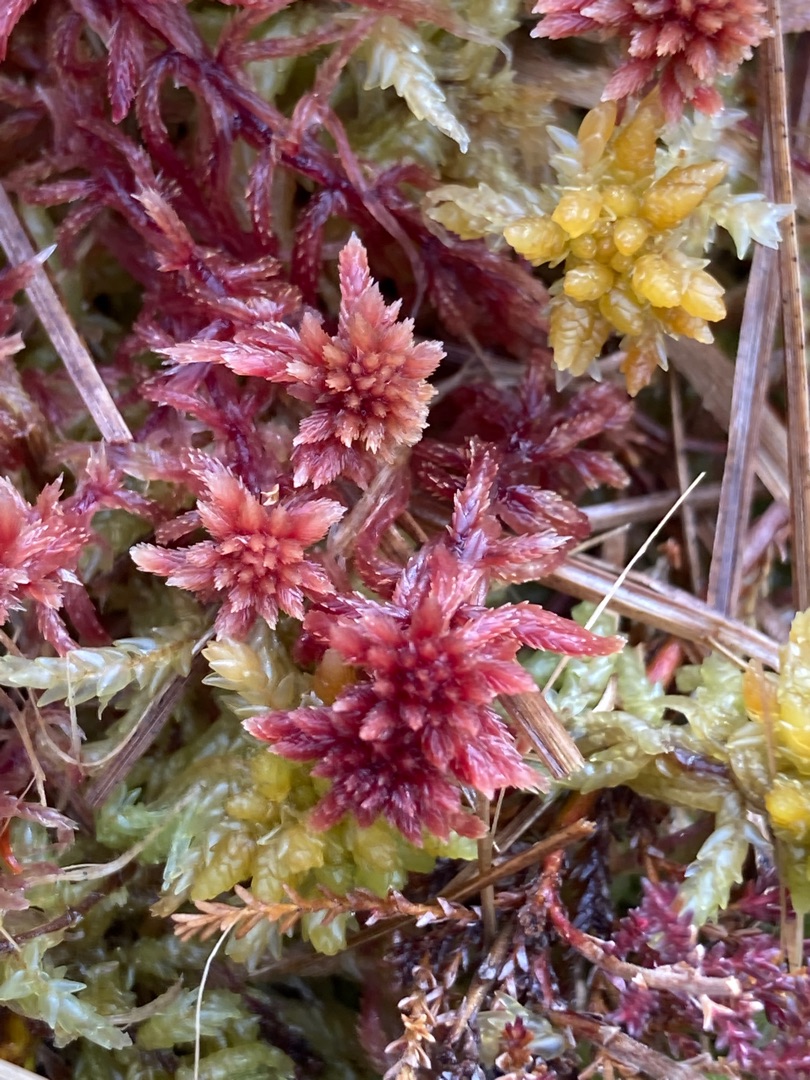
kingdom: Plantae
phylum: Bryophyta
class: Sphagnopsida
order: Sphagnales
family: Sphagnaceae
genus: Sphagnum
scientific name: Sphagnum
